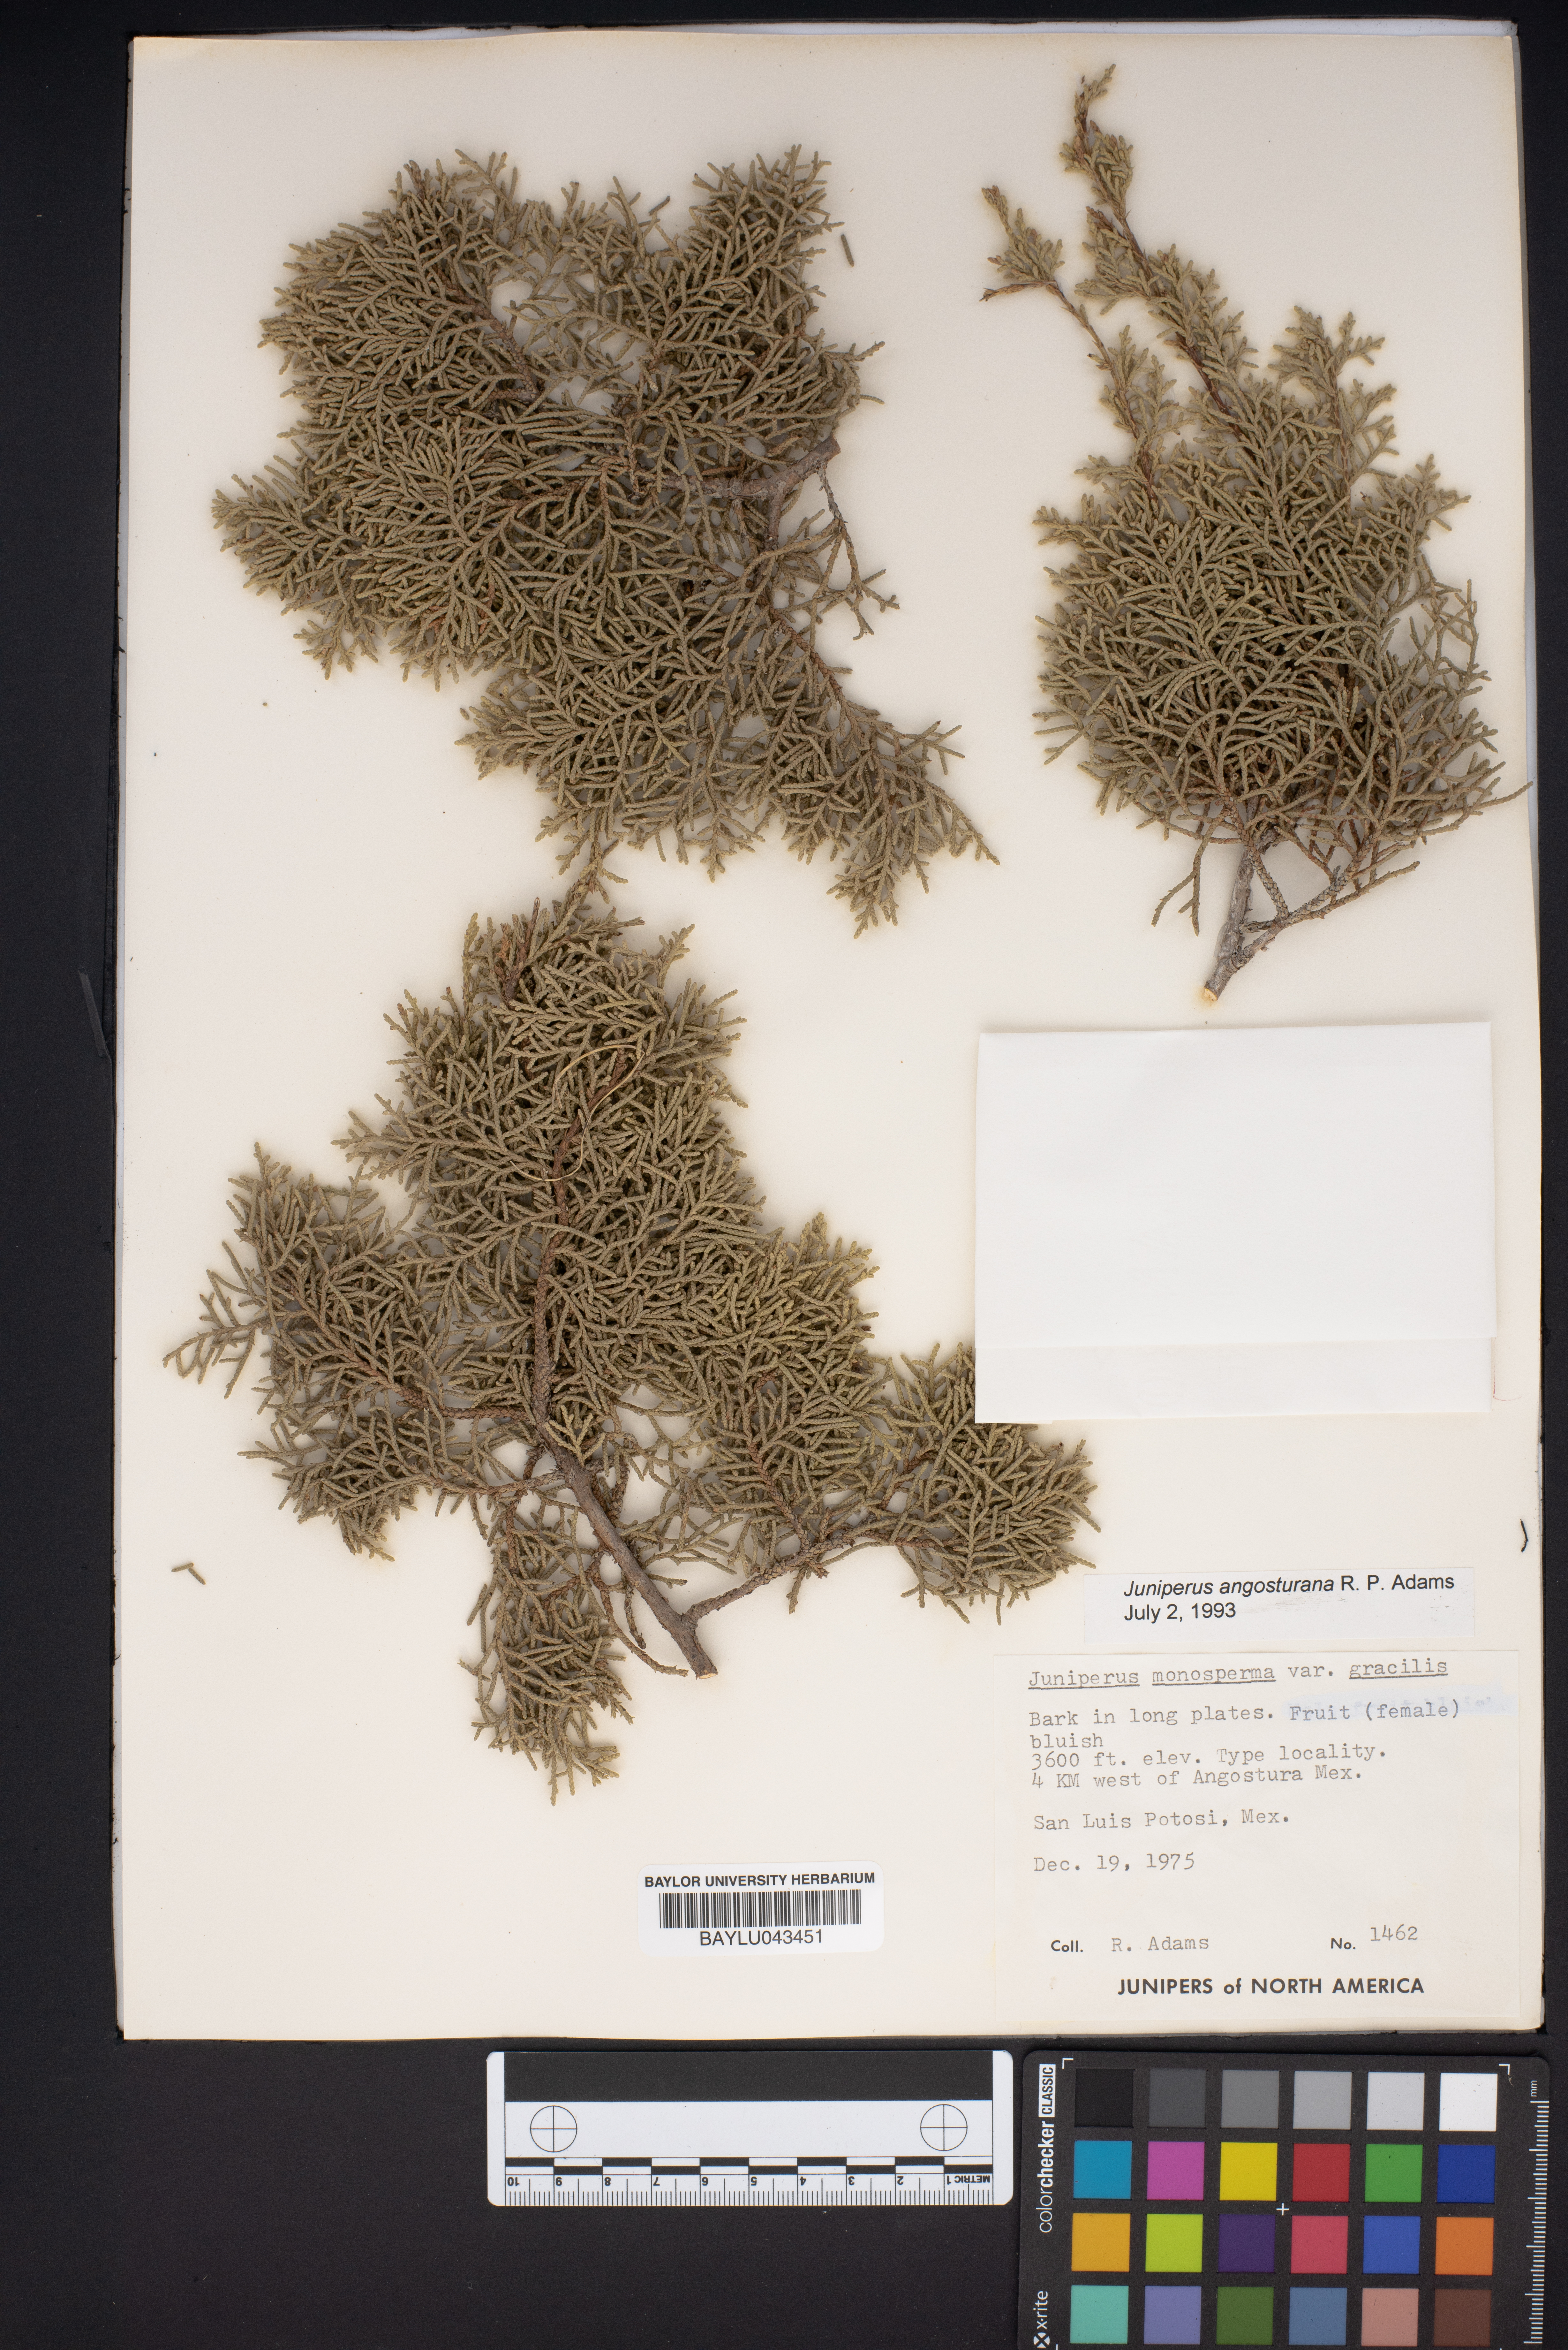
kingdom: Plantae
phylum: Tracheophyta
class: Pinopsida
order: Pinales
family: Cupressaceae
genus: Juniperus
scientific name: Juniperus angosturana
